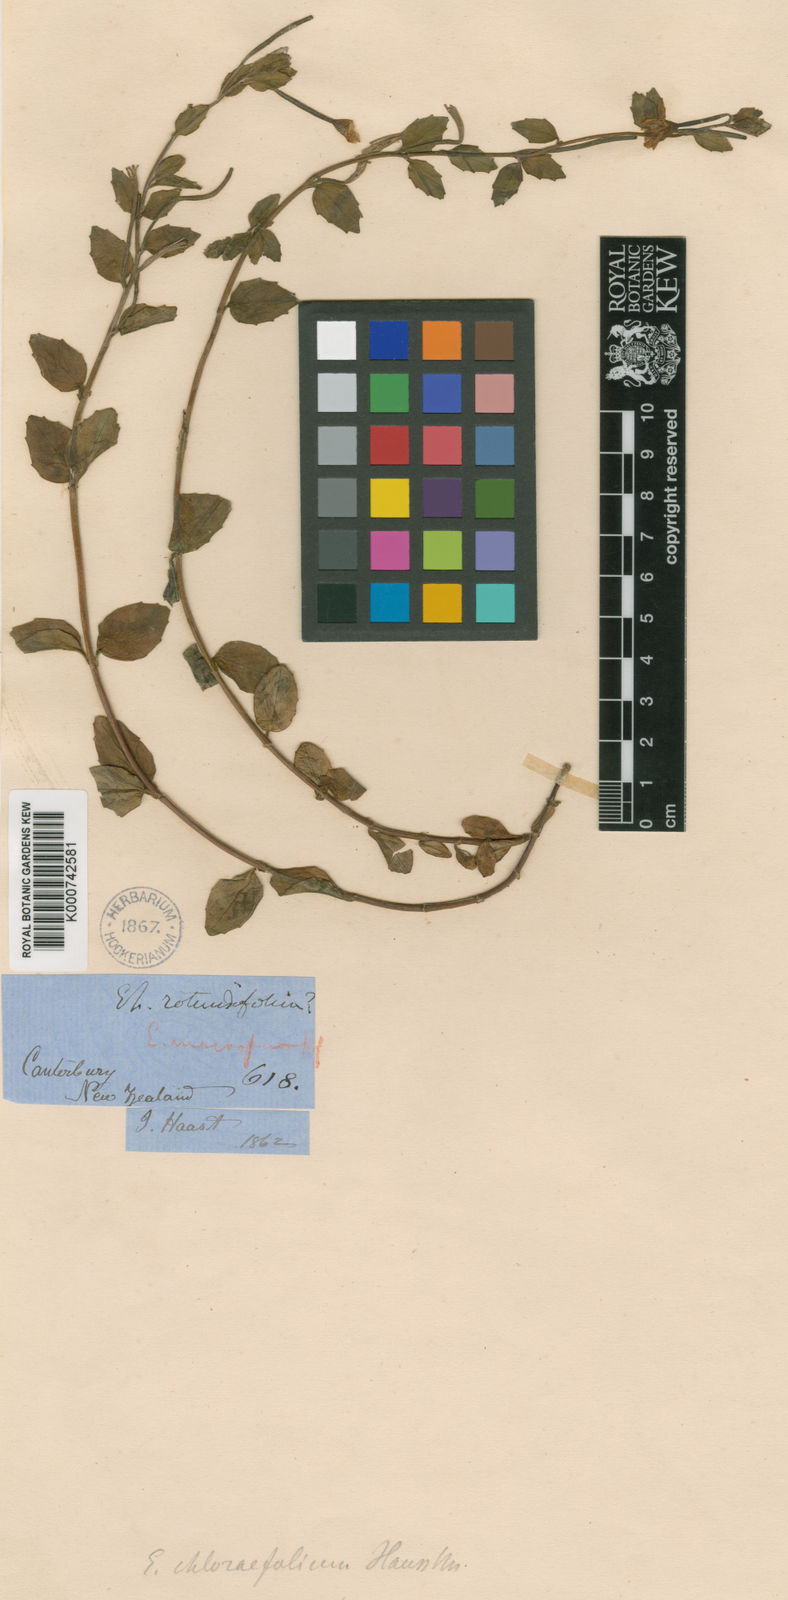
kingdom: Plantae
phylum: Tracheophyta
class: Magnoliopsida
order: Myrtales
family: Onagraceae
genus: Epilobium
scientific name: Epilobium chlorifolium
